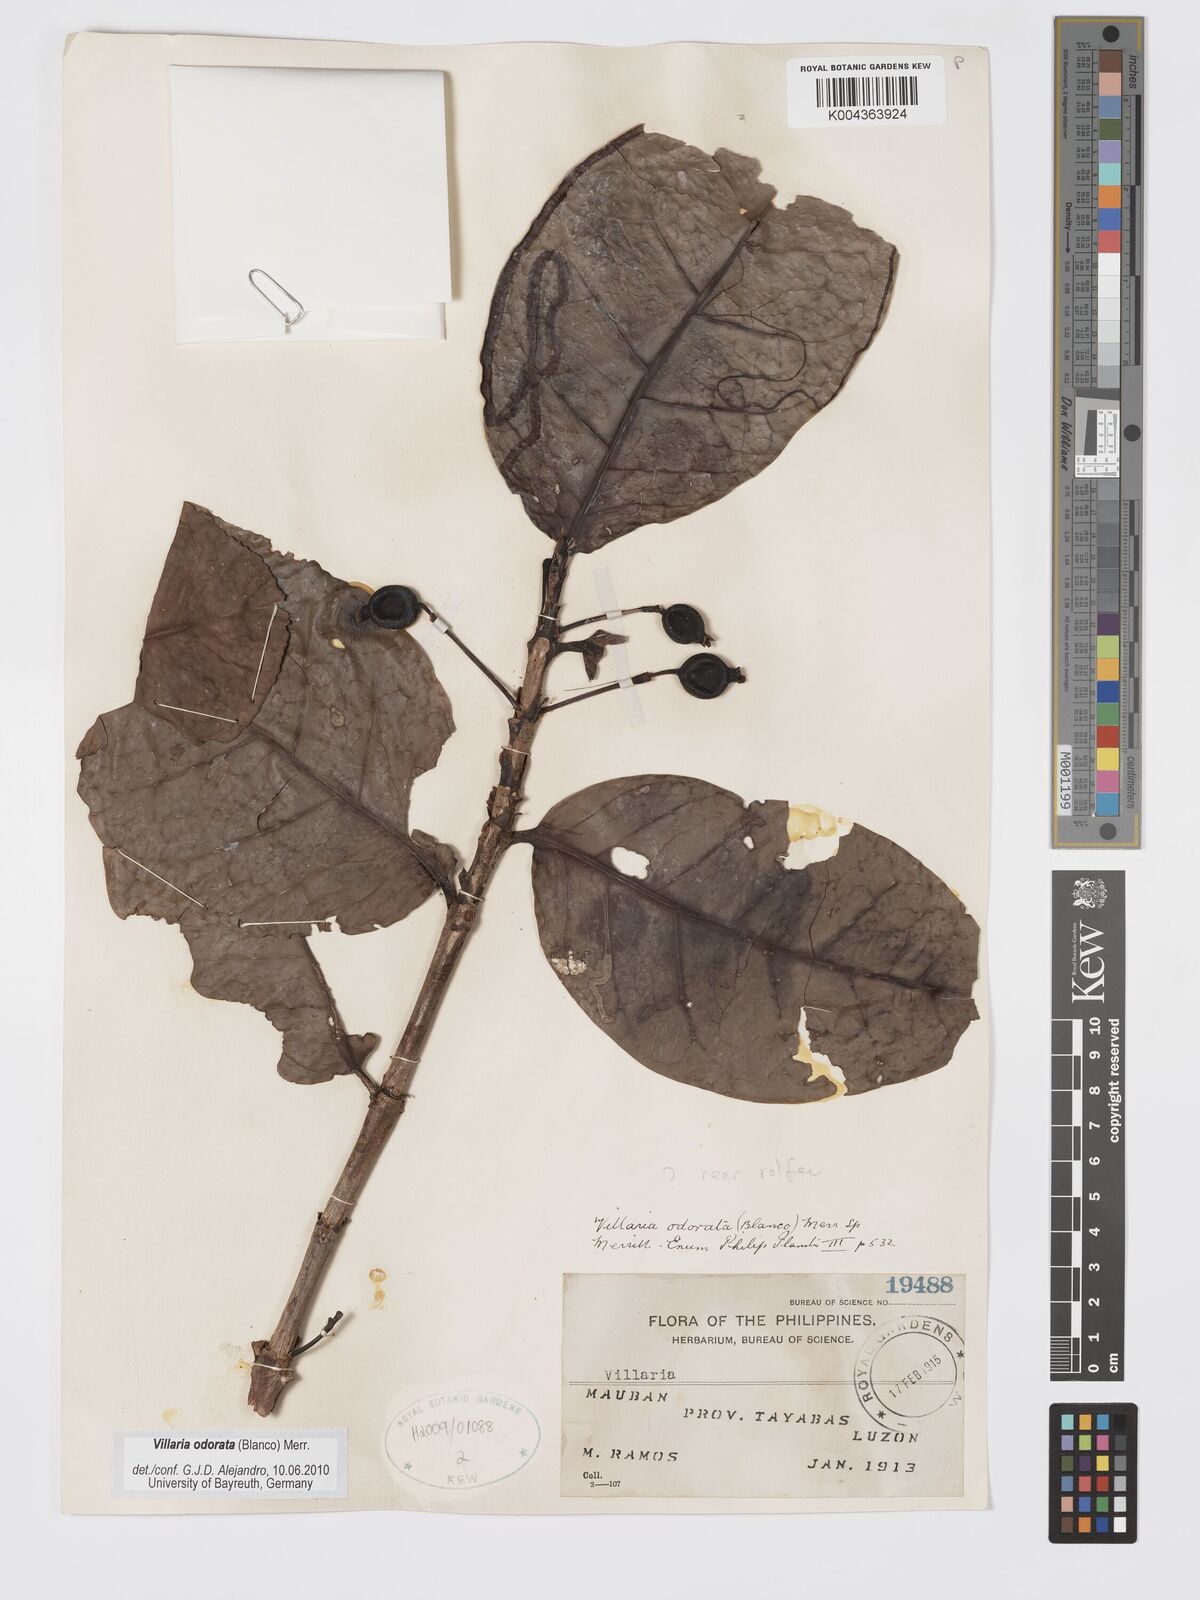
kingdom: Plantae
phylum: Tracheophyta
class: Magnoliopsida
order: Gentianales
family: Rubiaceae
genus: Villaria
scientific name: Villaria odorata
